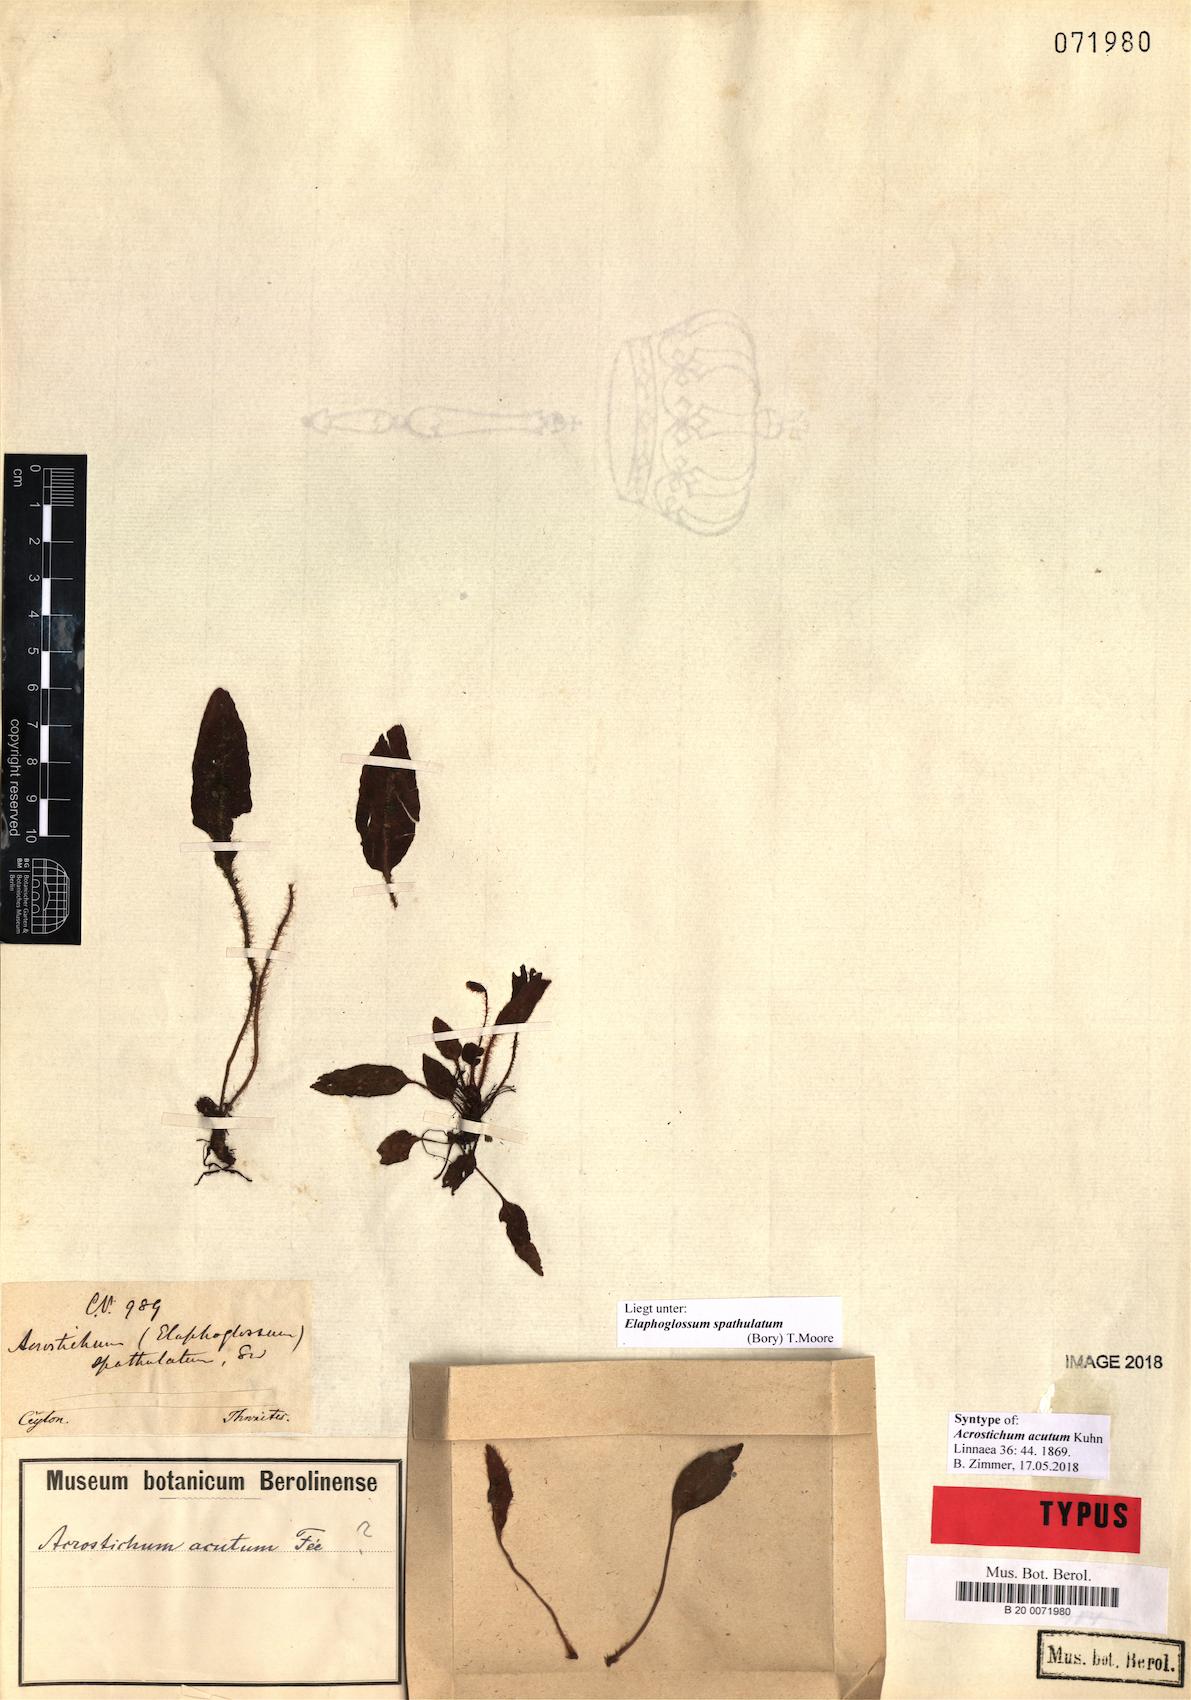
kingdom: Plantae
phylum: Tracheophyta
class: Polypodiopsida
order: Polypodiales
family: Dryopteridaceae
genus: Elaphoglossum
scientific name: Elaphoglossum spatulatum
